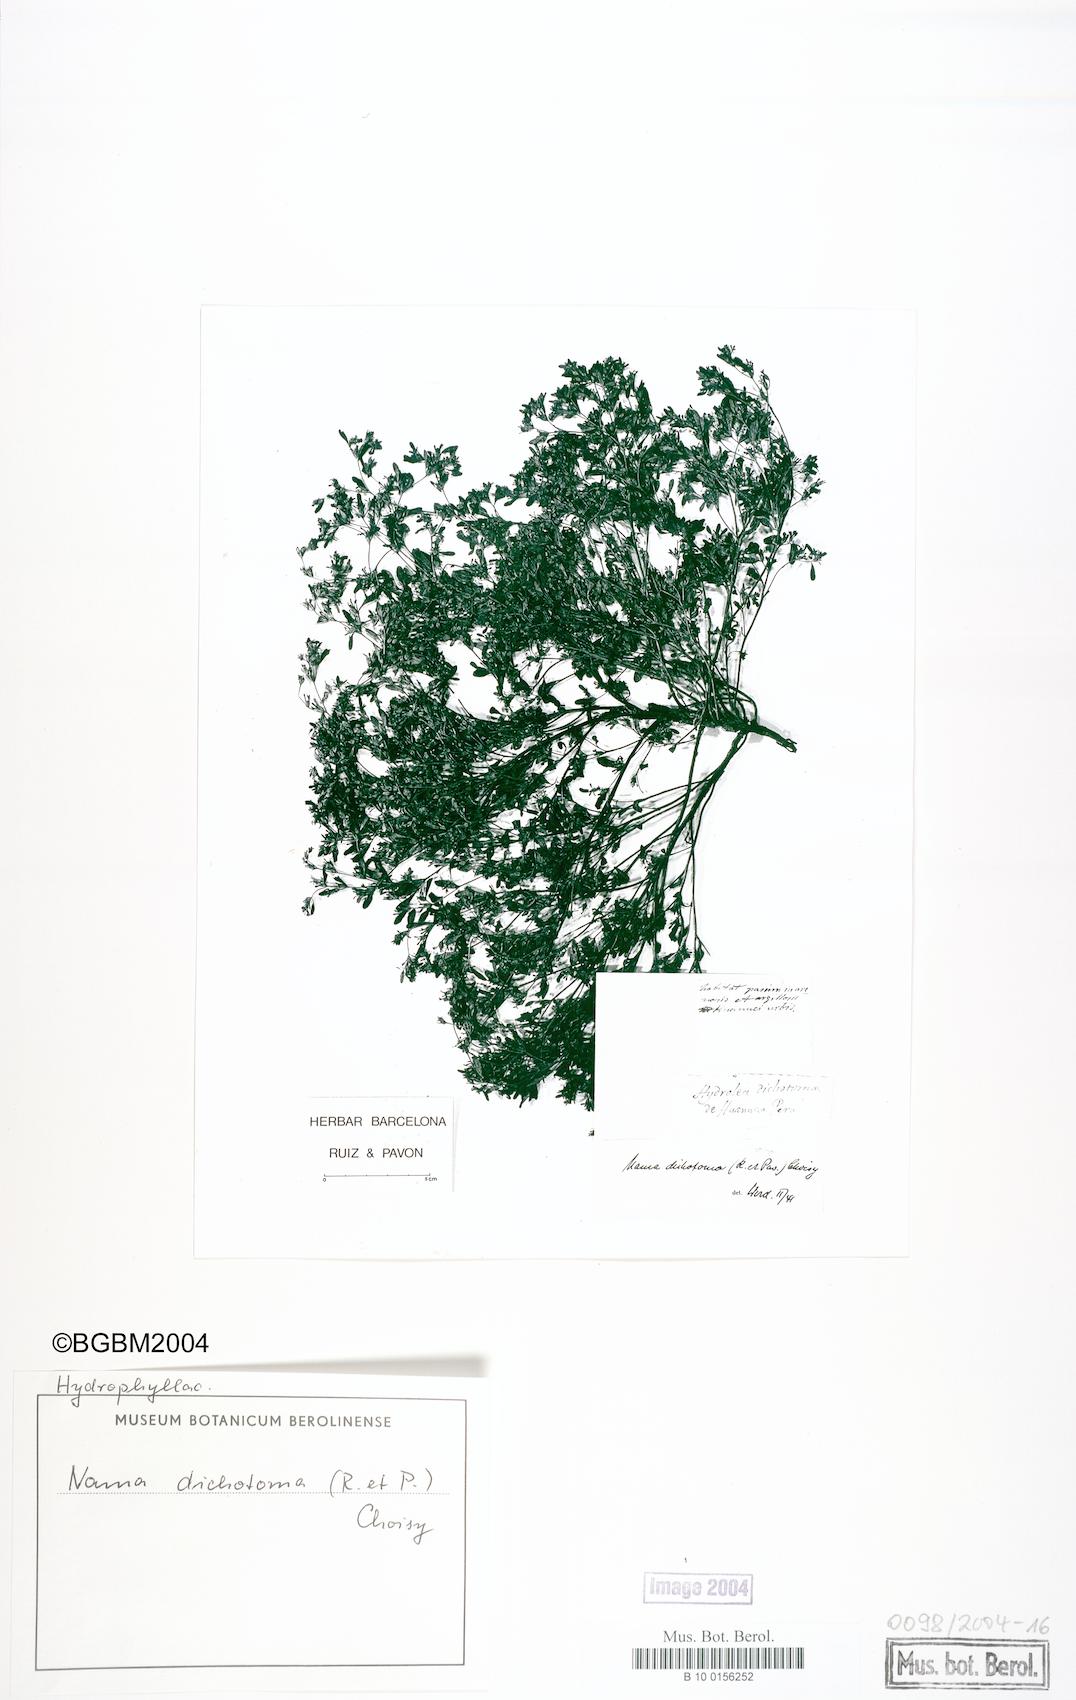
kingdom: Plantae
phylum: Tracheophyta
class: Magnoliopsida
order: Boraginales
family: Namaceae
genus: Nama
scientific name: Nama dichotoma
